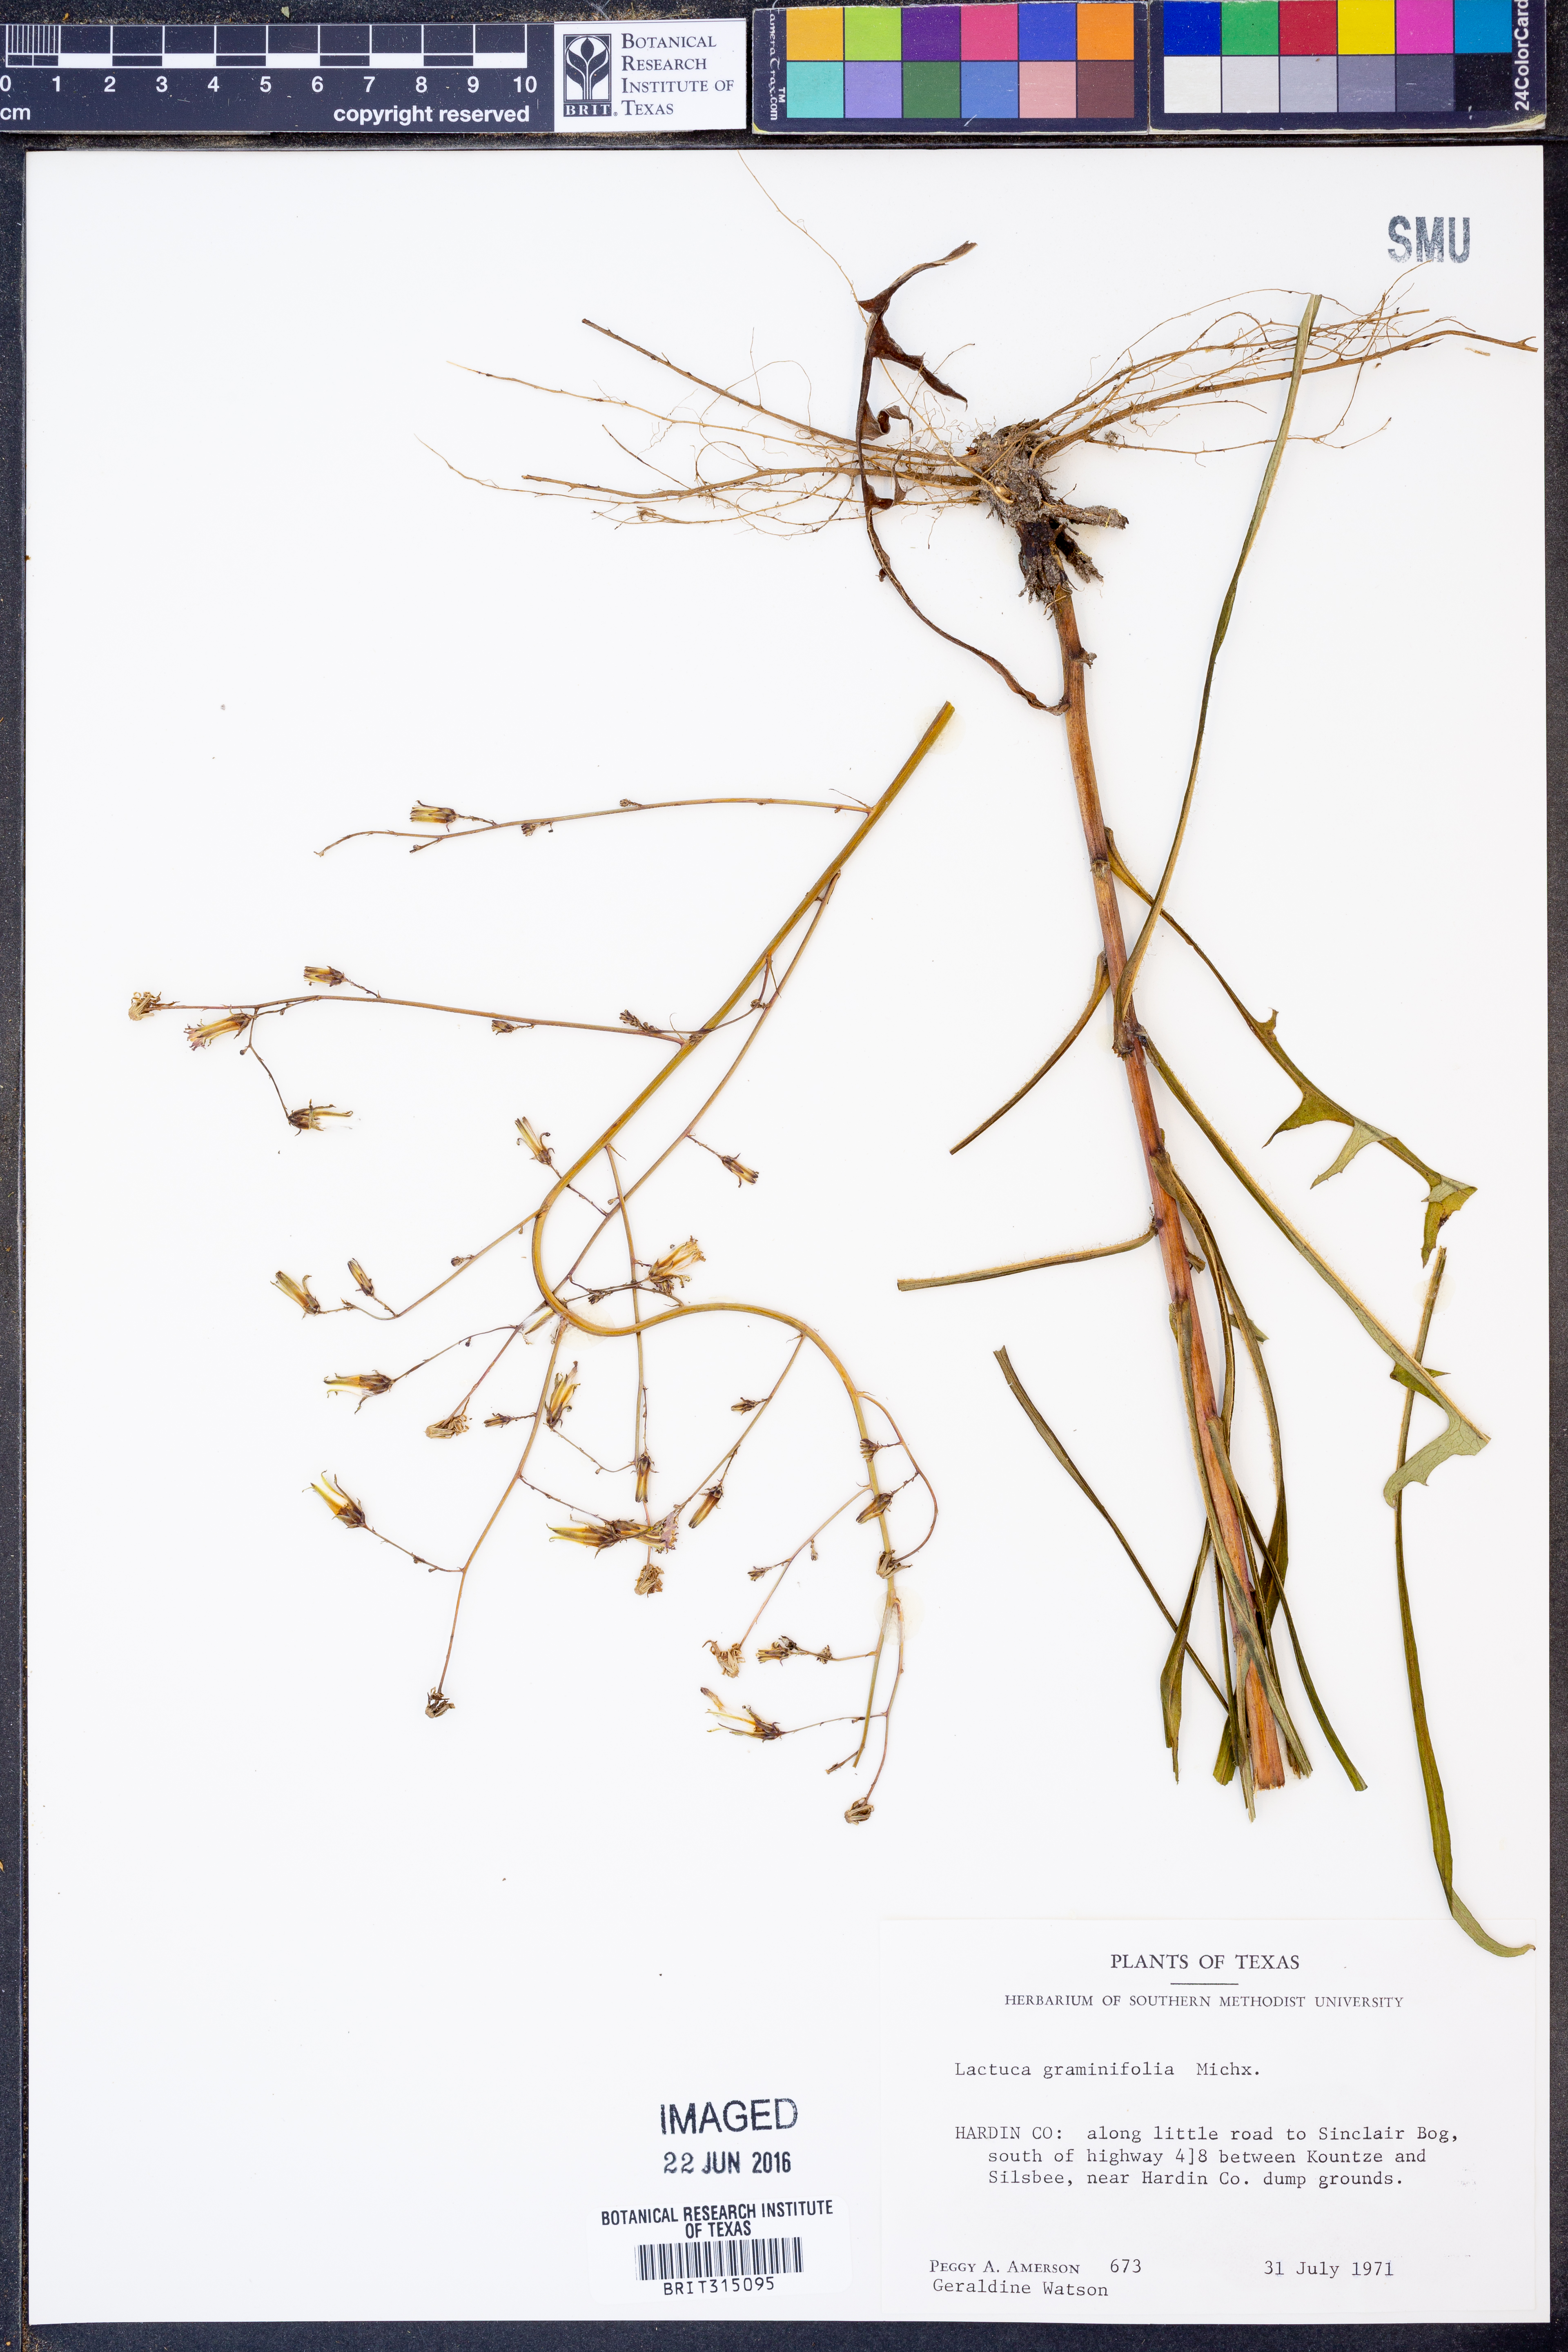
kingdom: Plantae
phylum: Tracheophyta
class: Magnoliopsida
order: Asterales
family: Asteraceae
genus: Lactuca
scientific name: Lactuca graminifolia
